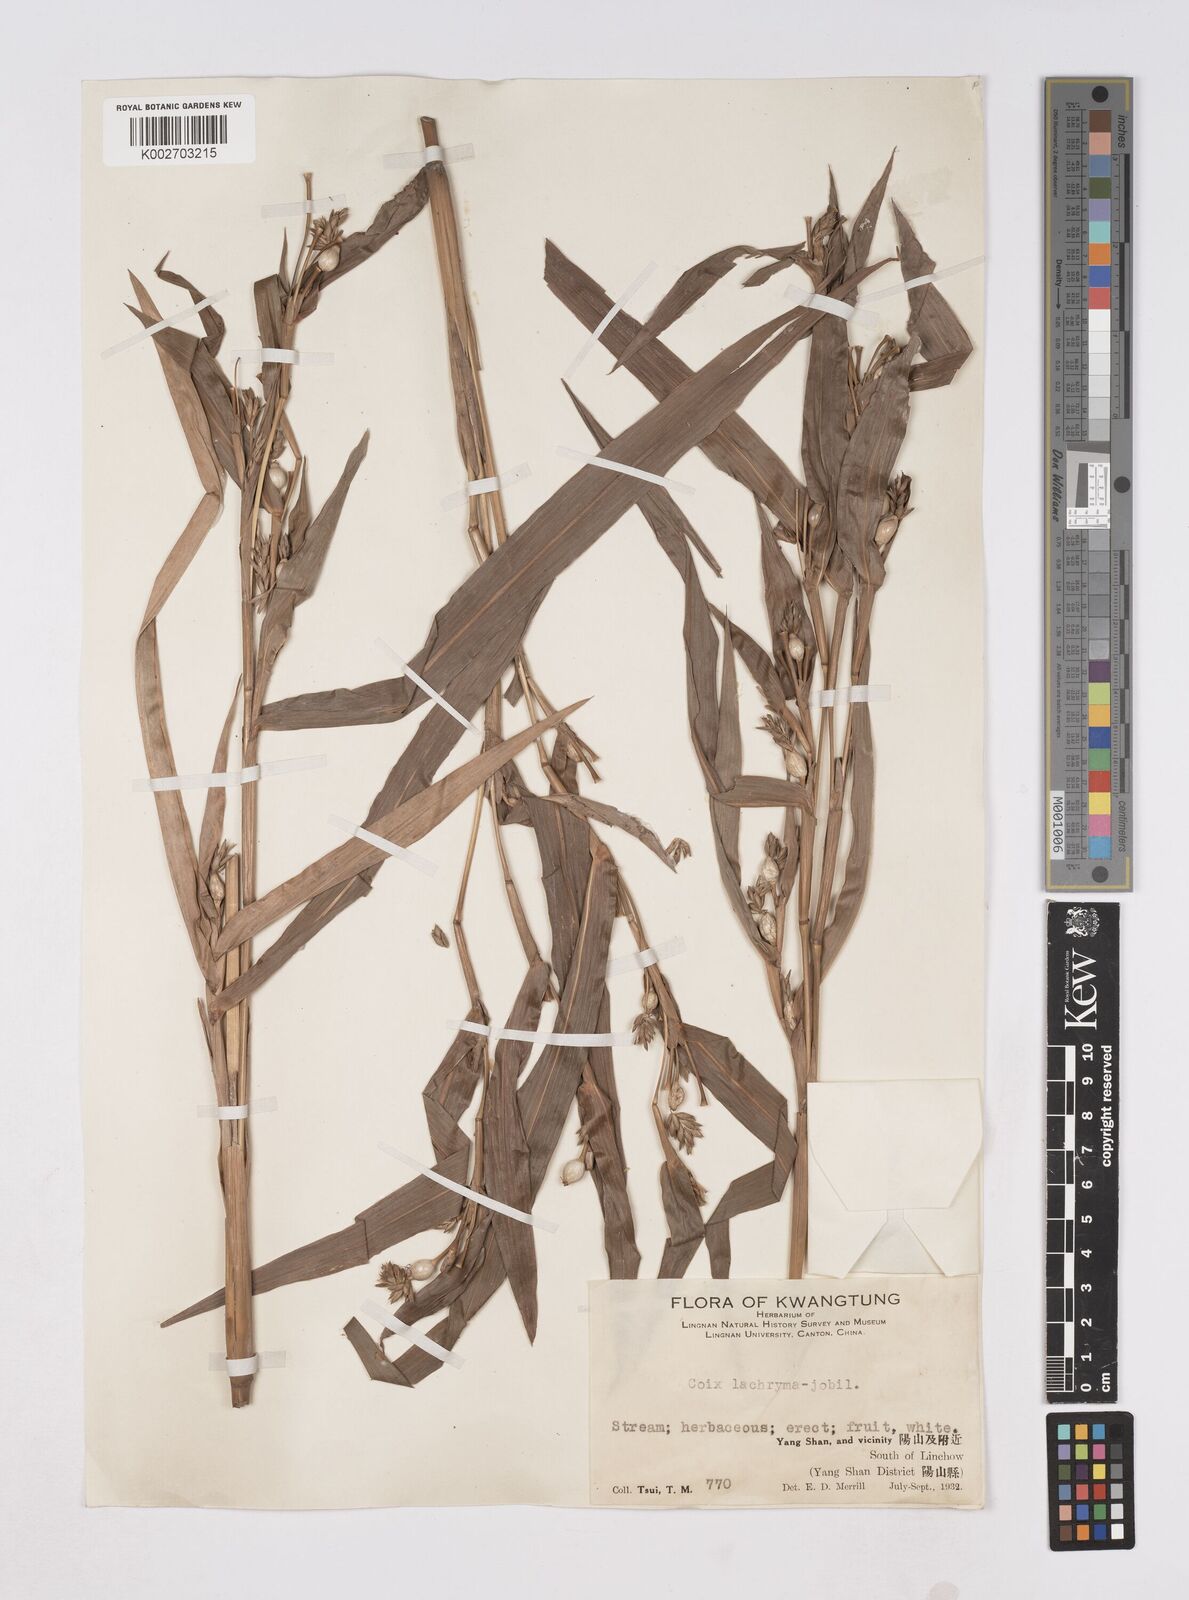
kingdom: Plantae
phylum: Tracheophyta
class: Liliopsida
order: Poales
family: Poaceae
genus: Coix
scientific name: Coix lacryma-jobi
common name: Job's tears
